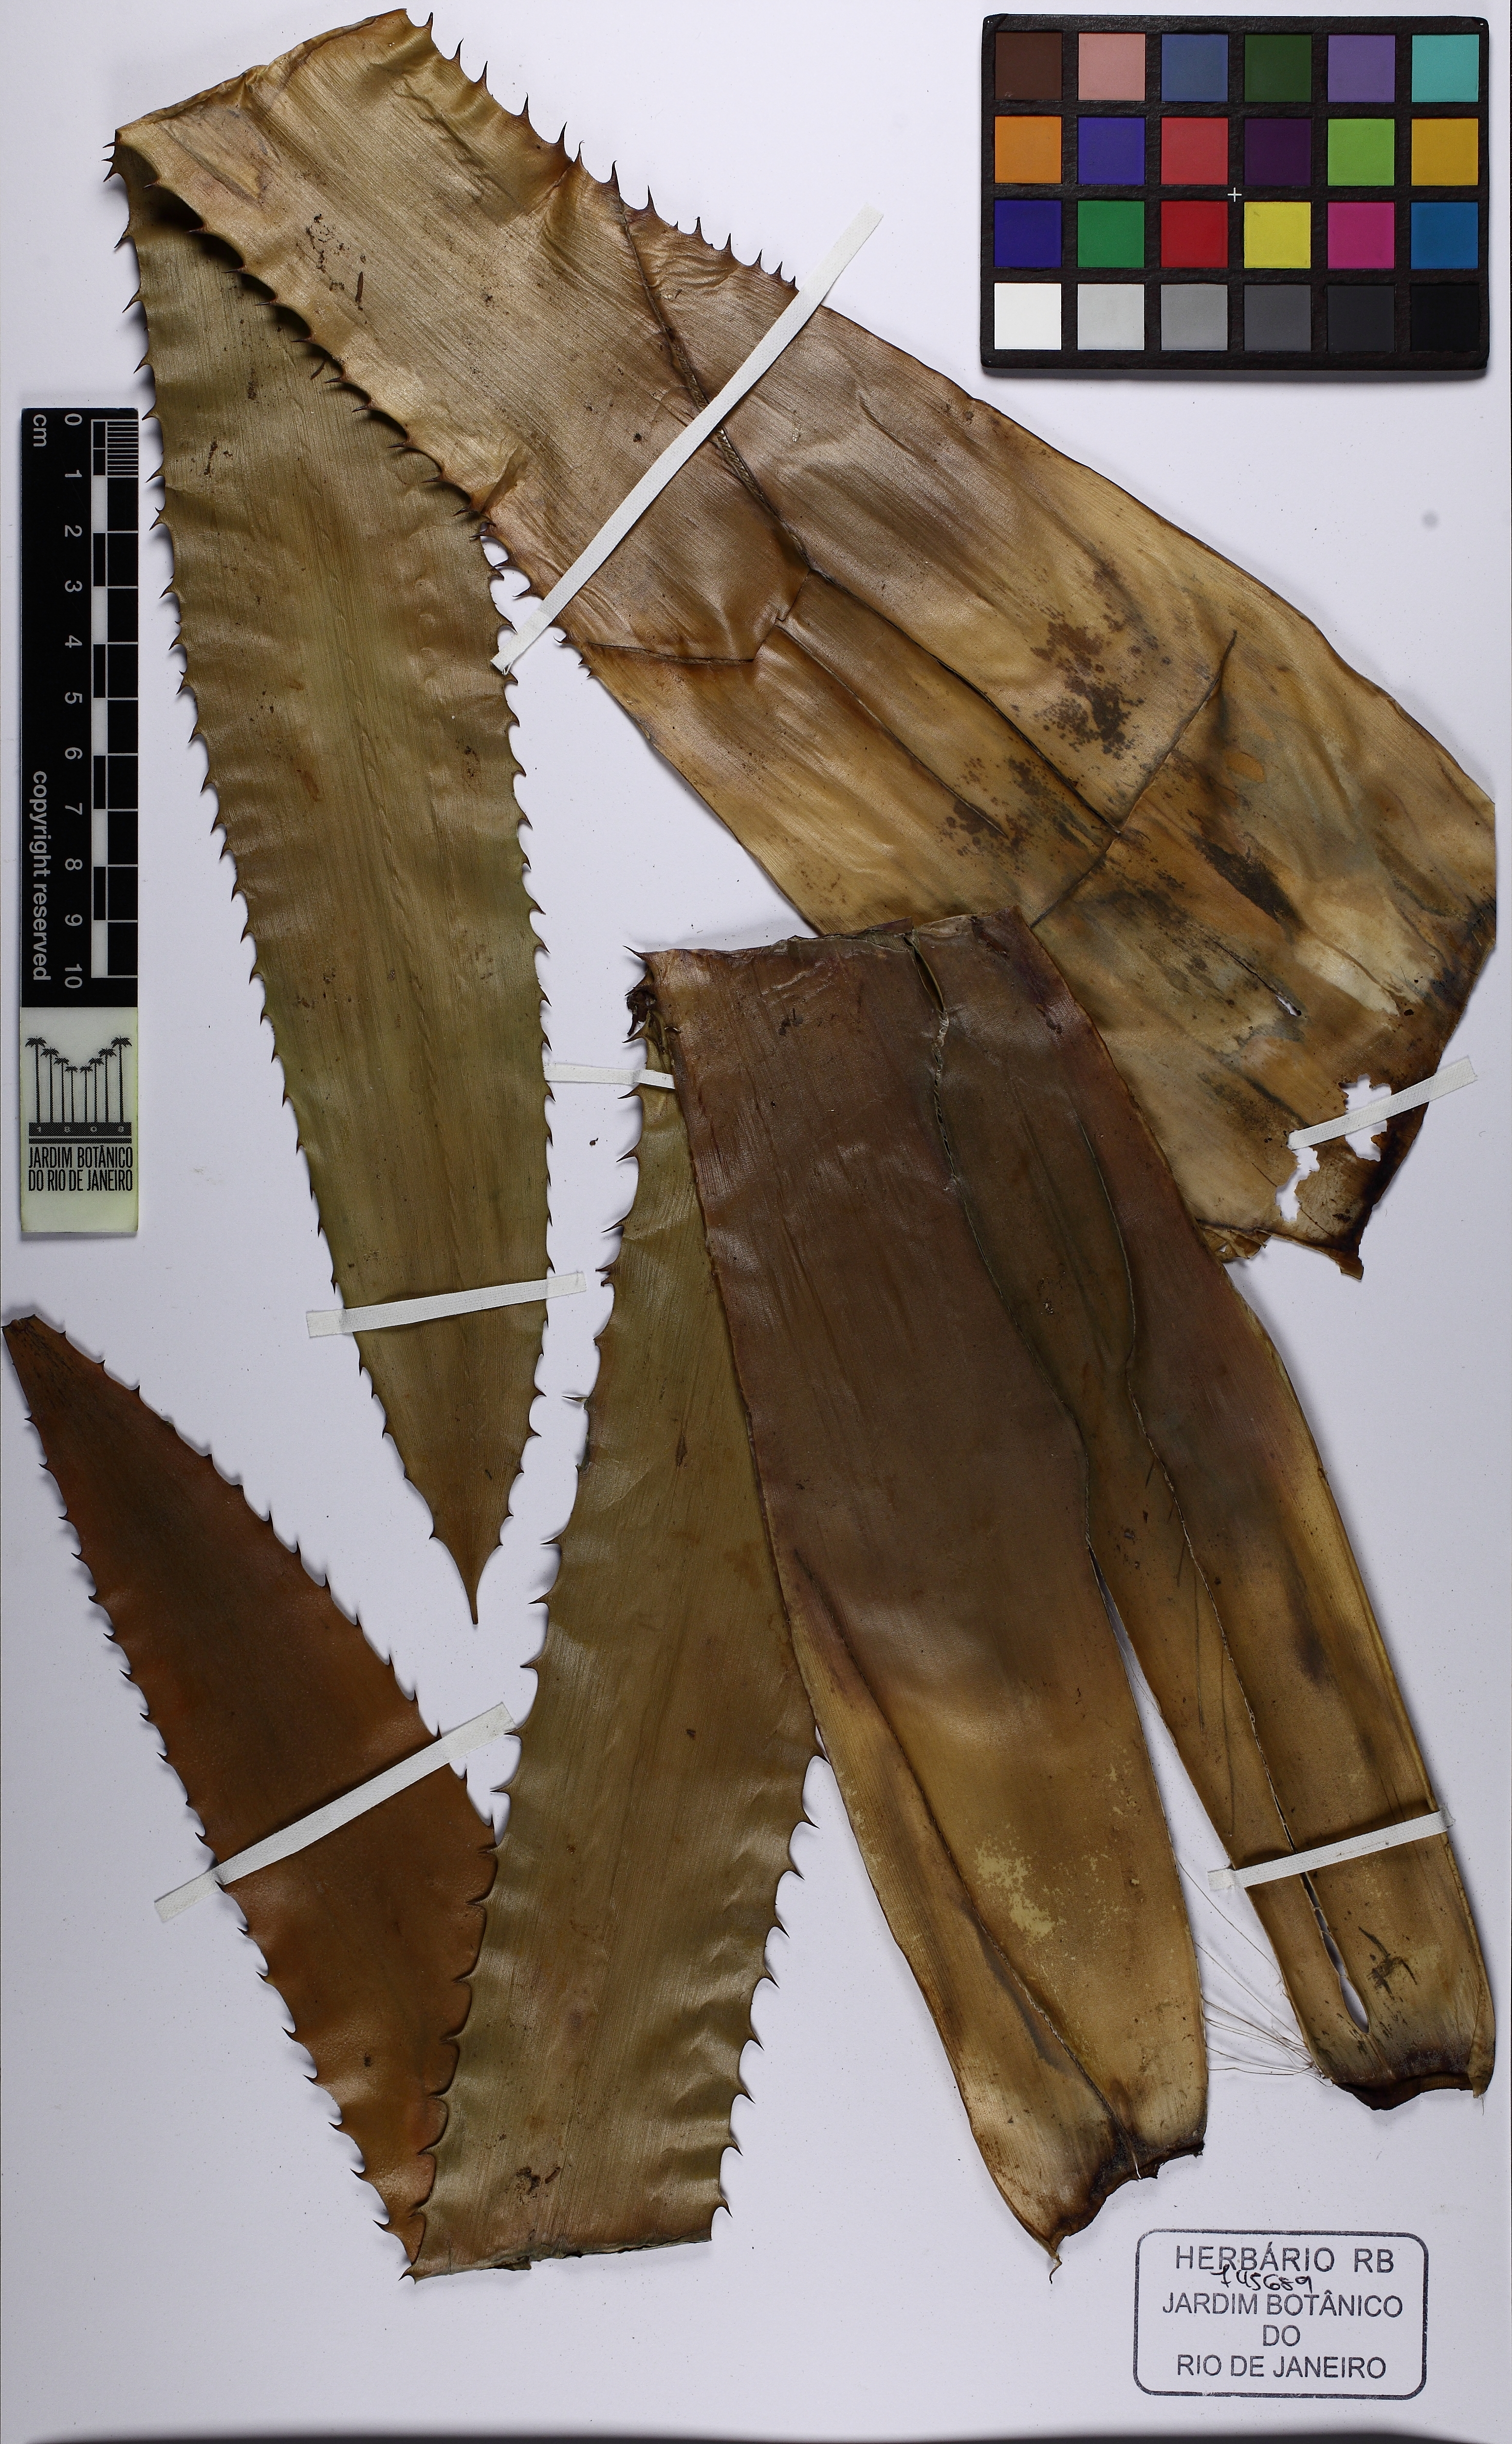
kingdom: Plantae
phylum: Tracheophyta
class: Liliopsida
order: Poales
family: Bromeliaceae
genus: Aechmea
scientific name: Aechmea phanerophlebia
